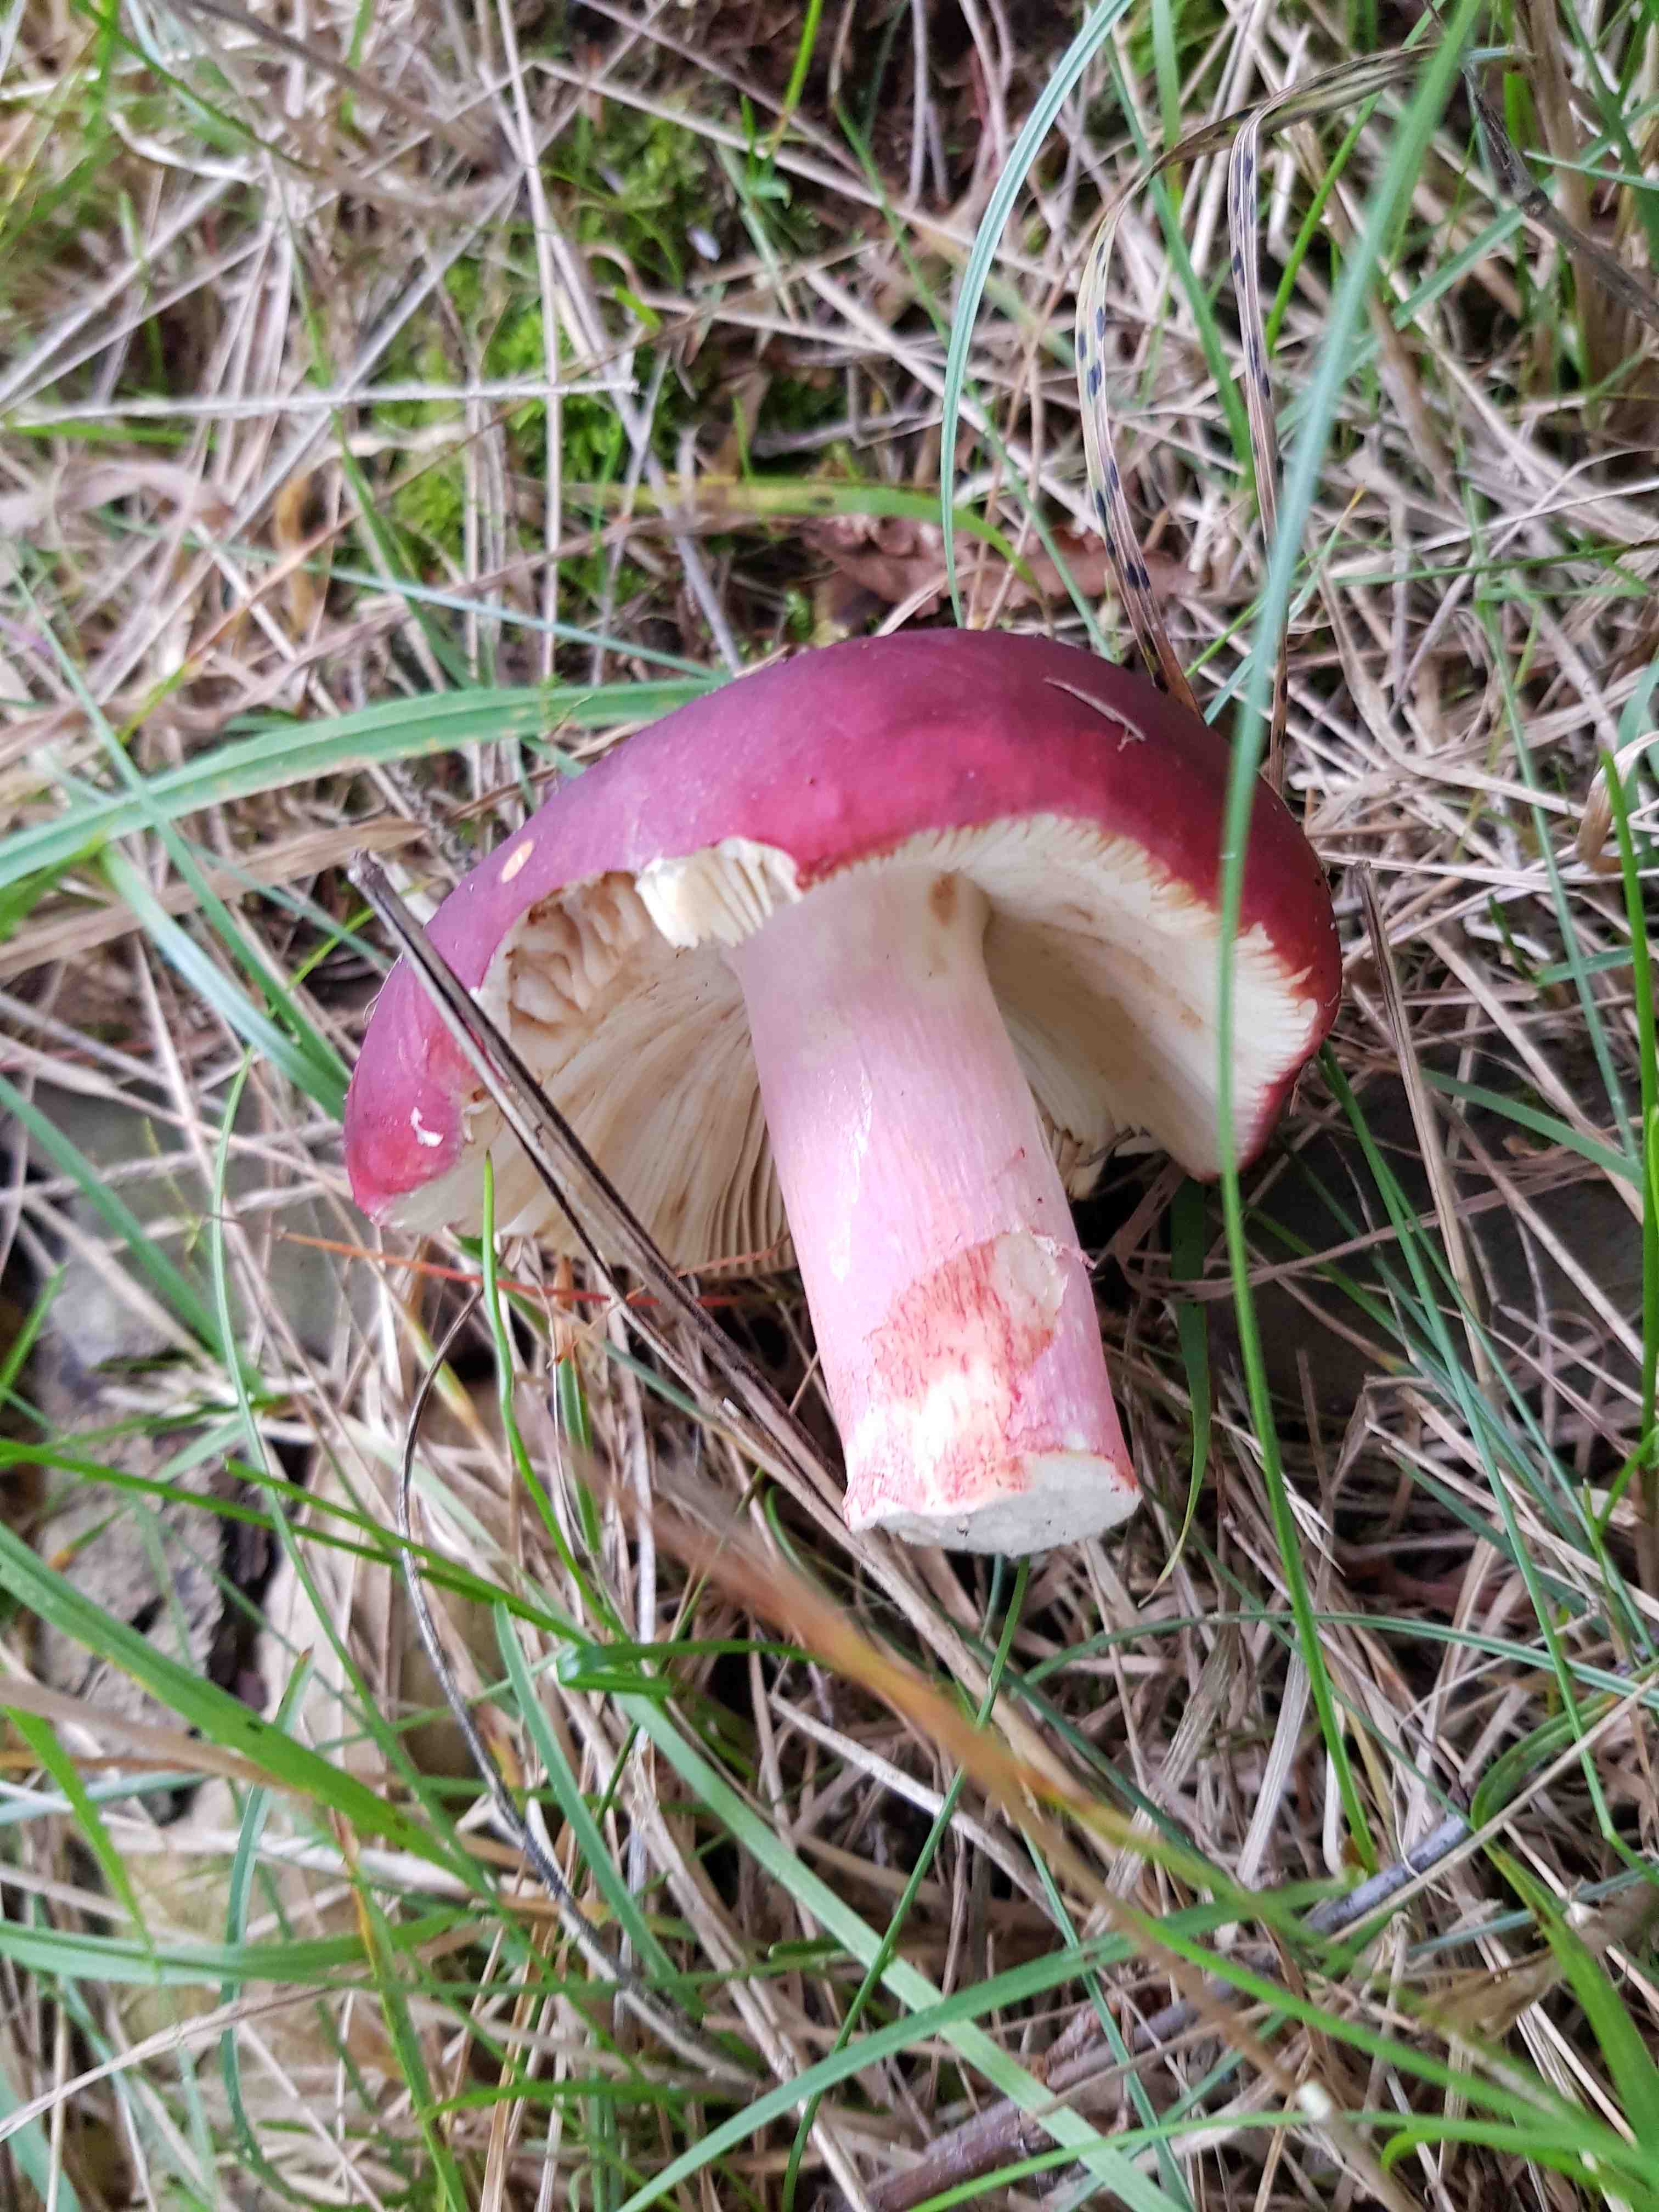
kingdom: Fungi
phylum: Basidiomycota
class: Agaricomycetes
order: Russulales
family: Russulaceae
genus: Russula
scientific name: Russula
